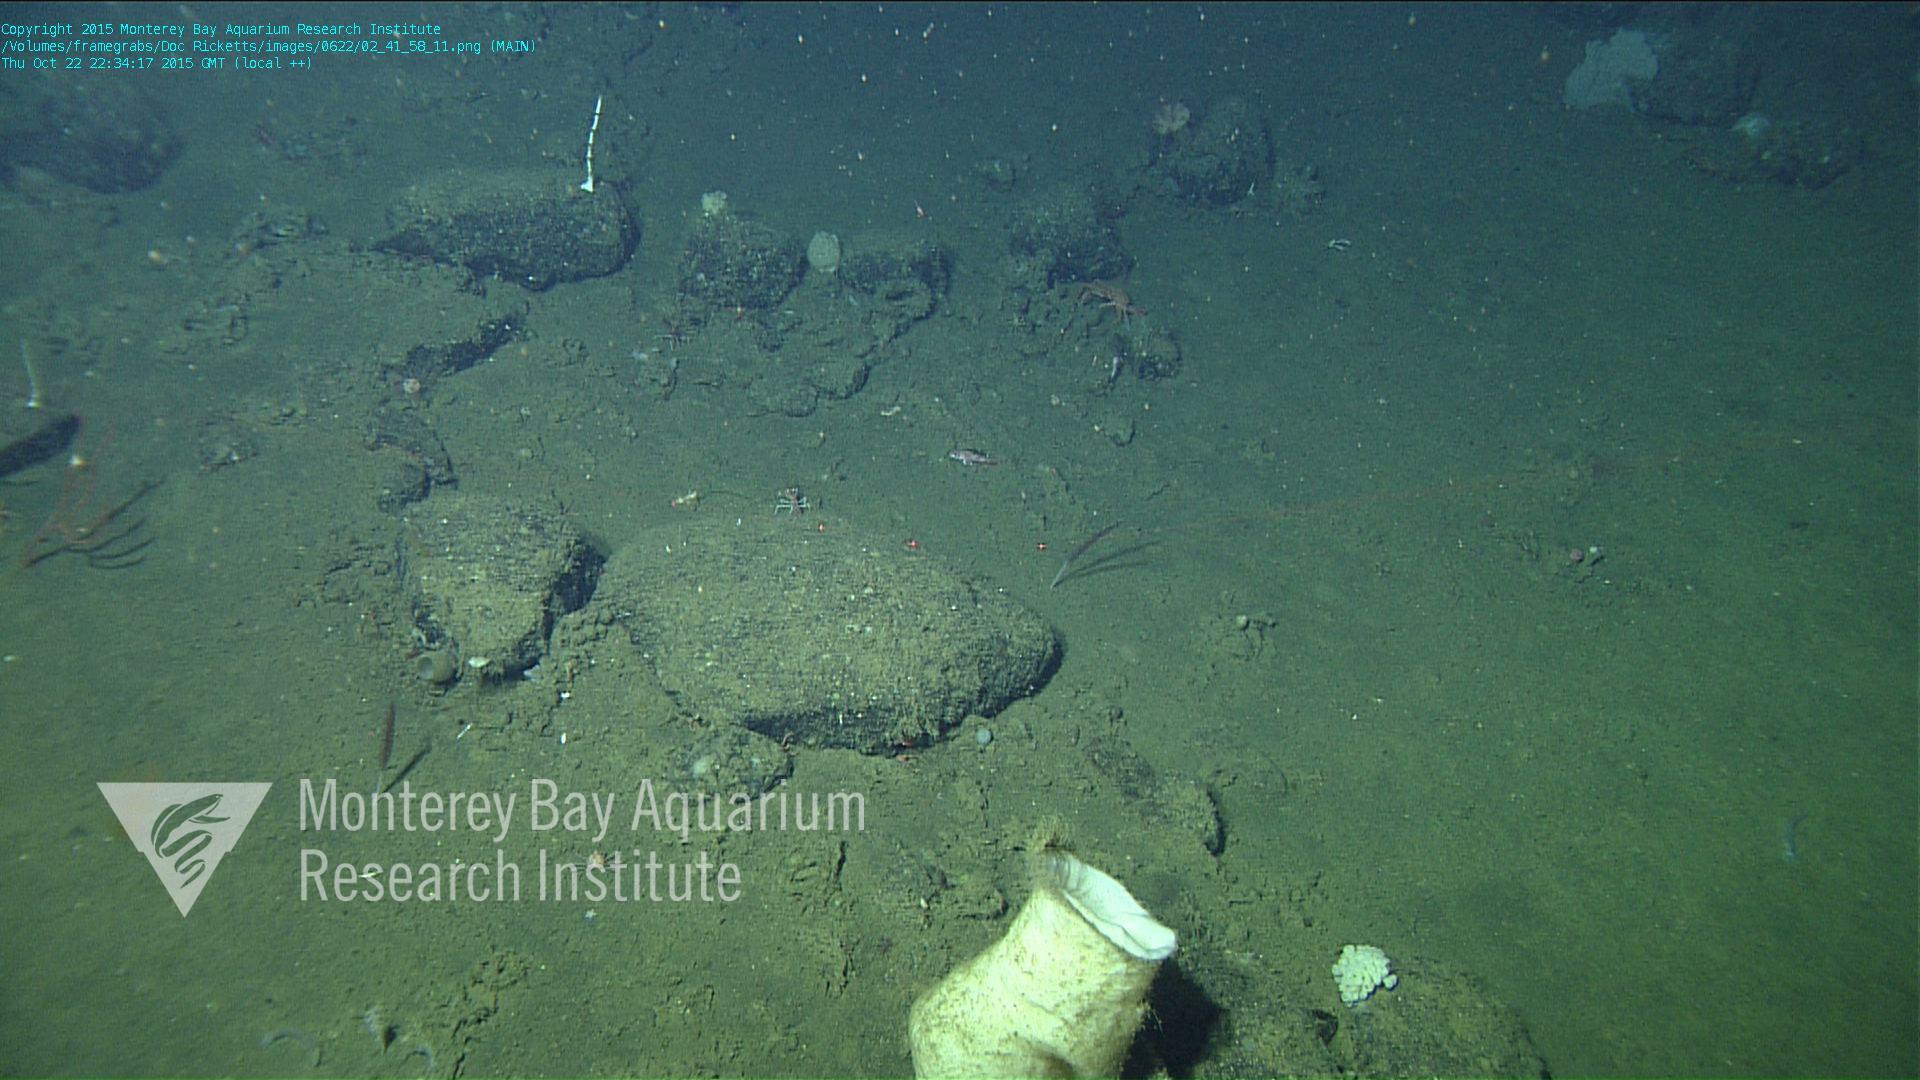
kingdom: Animalia
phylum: Cnidaria
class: Anthozoa
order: Scleralcyonacea
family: Funiculinidae
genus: Funiculina
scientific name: Funiculina
